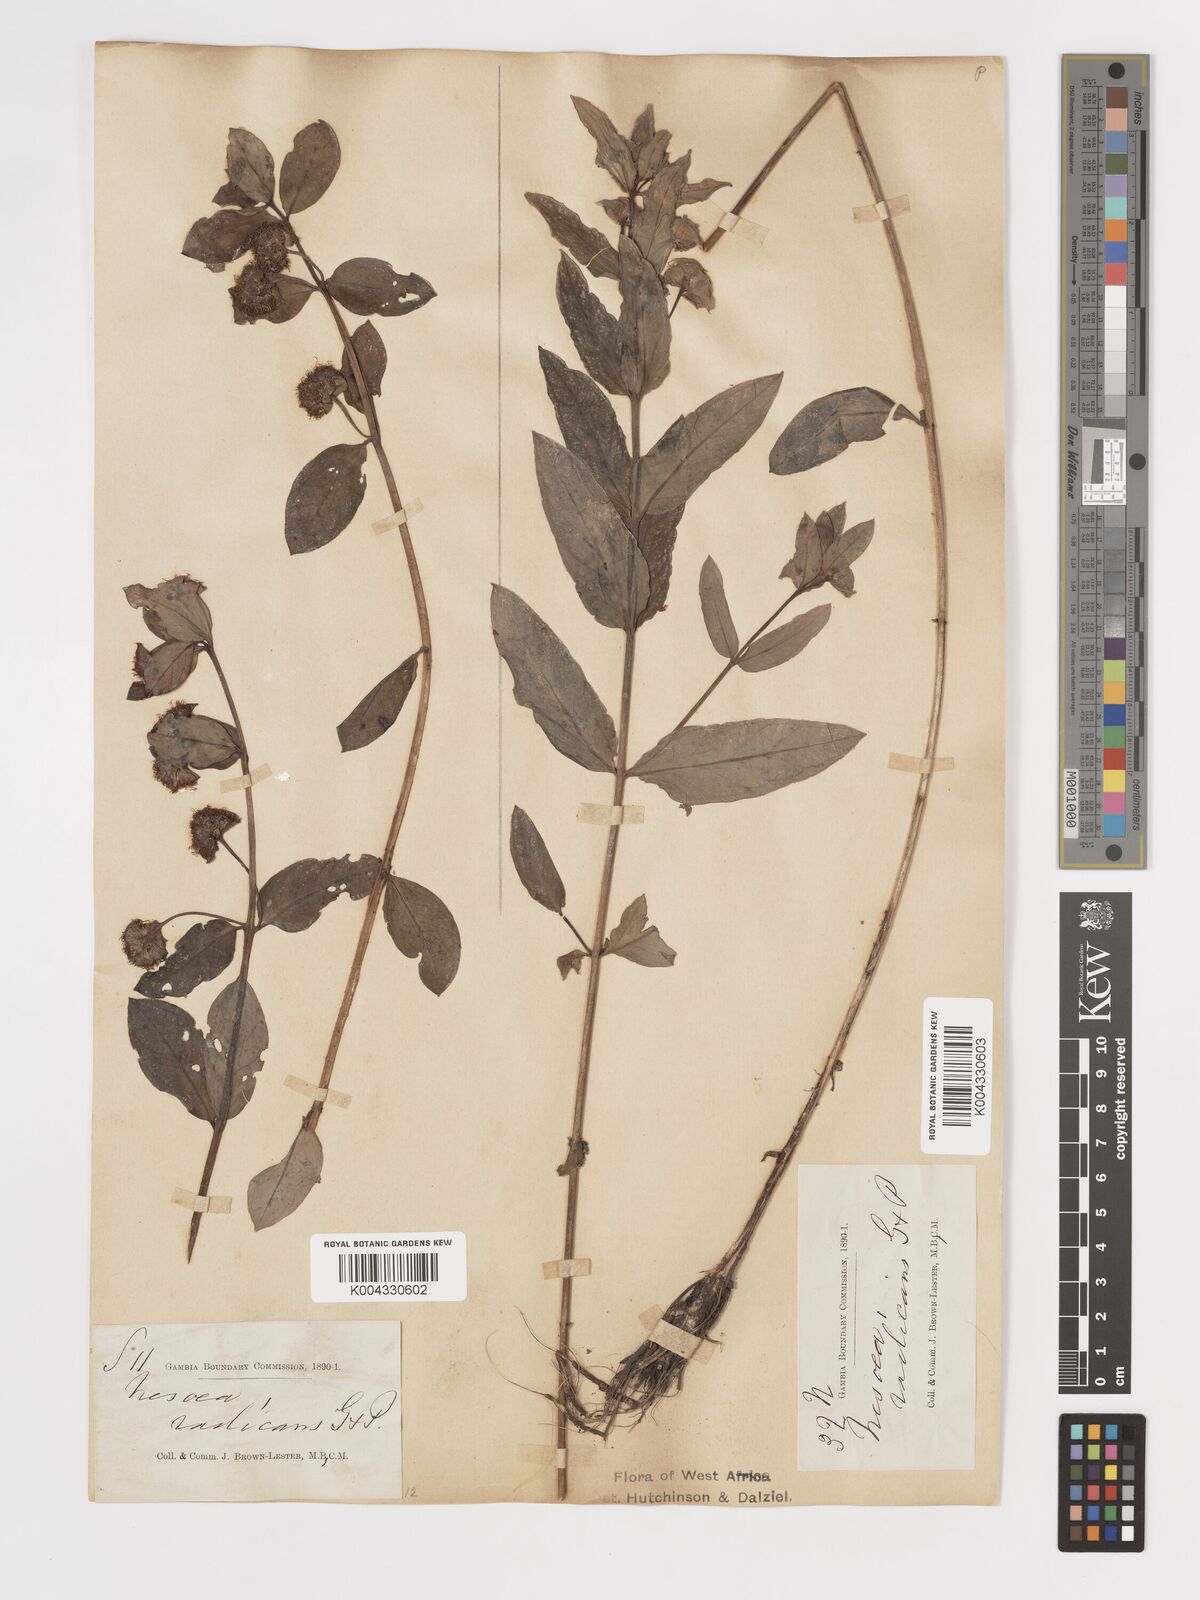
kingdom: Plantae
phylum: Tracheophyta
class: Magnoliopsida
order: Myrtales
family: Lythraceae
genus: Ammannia
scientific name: Ammannia radicans
